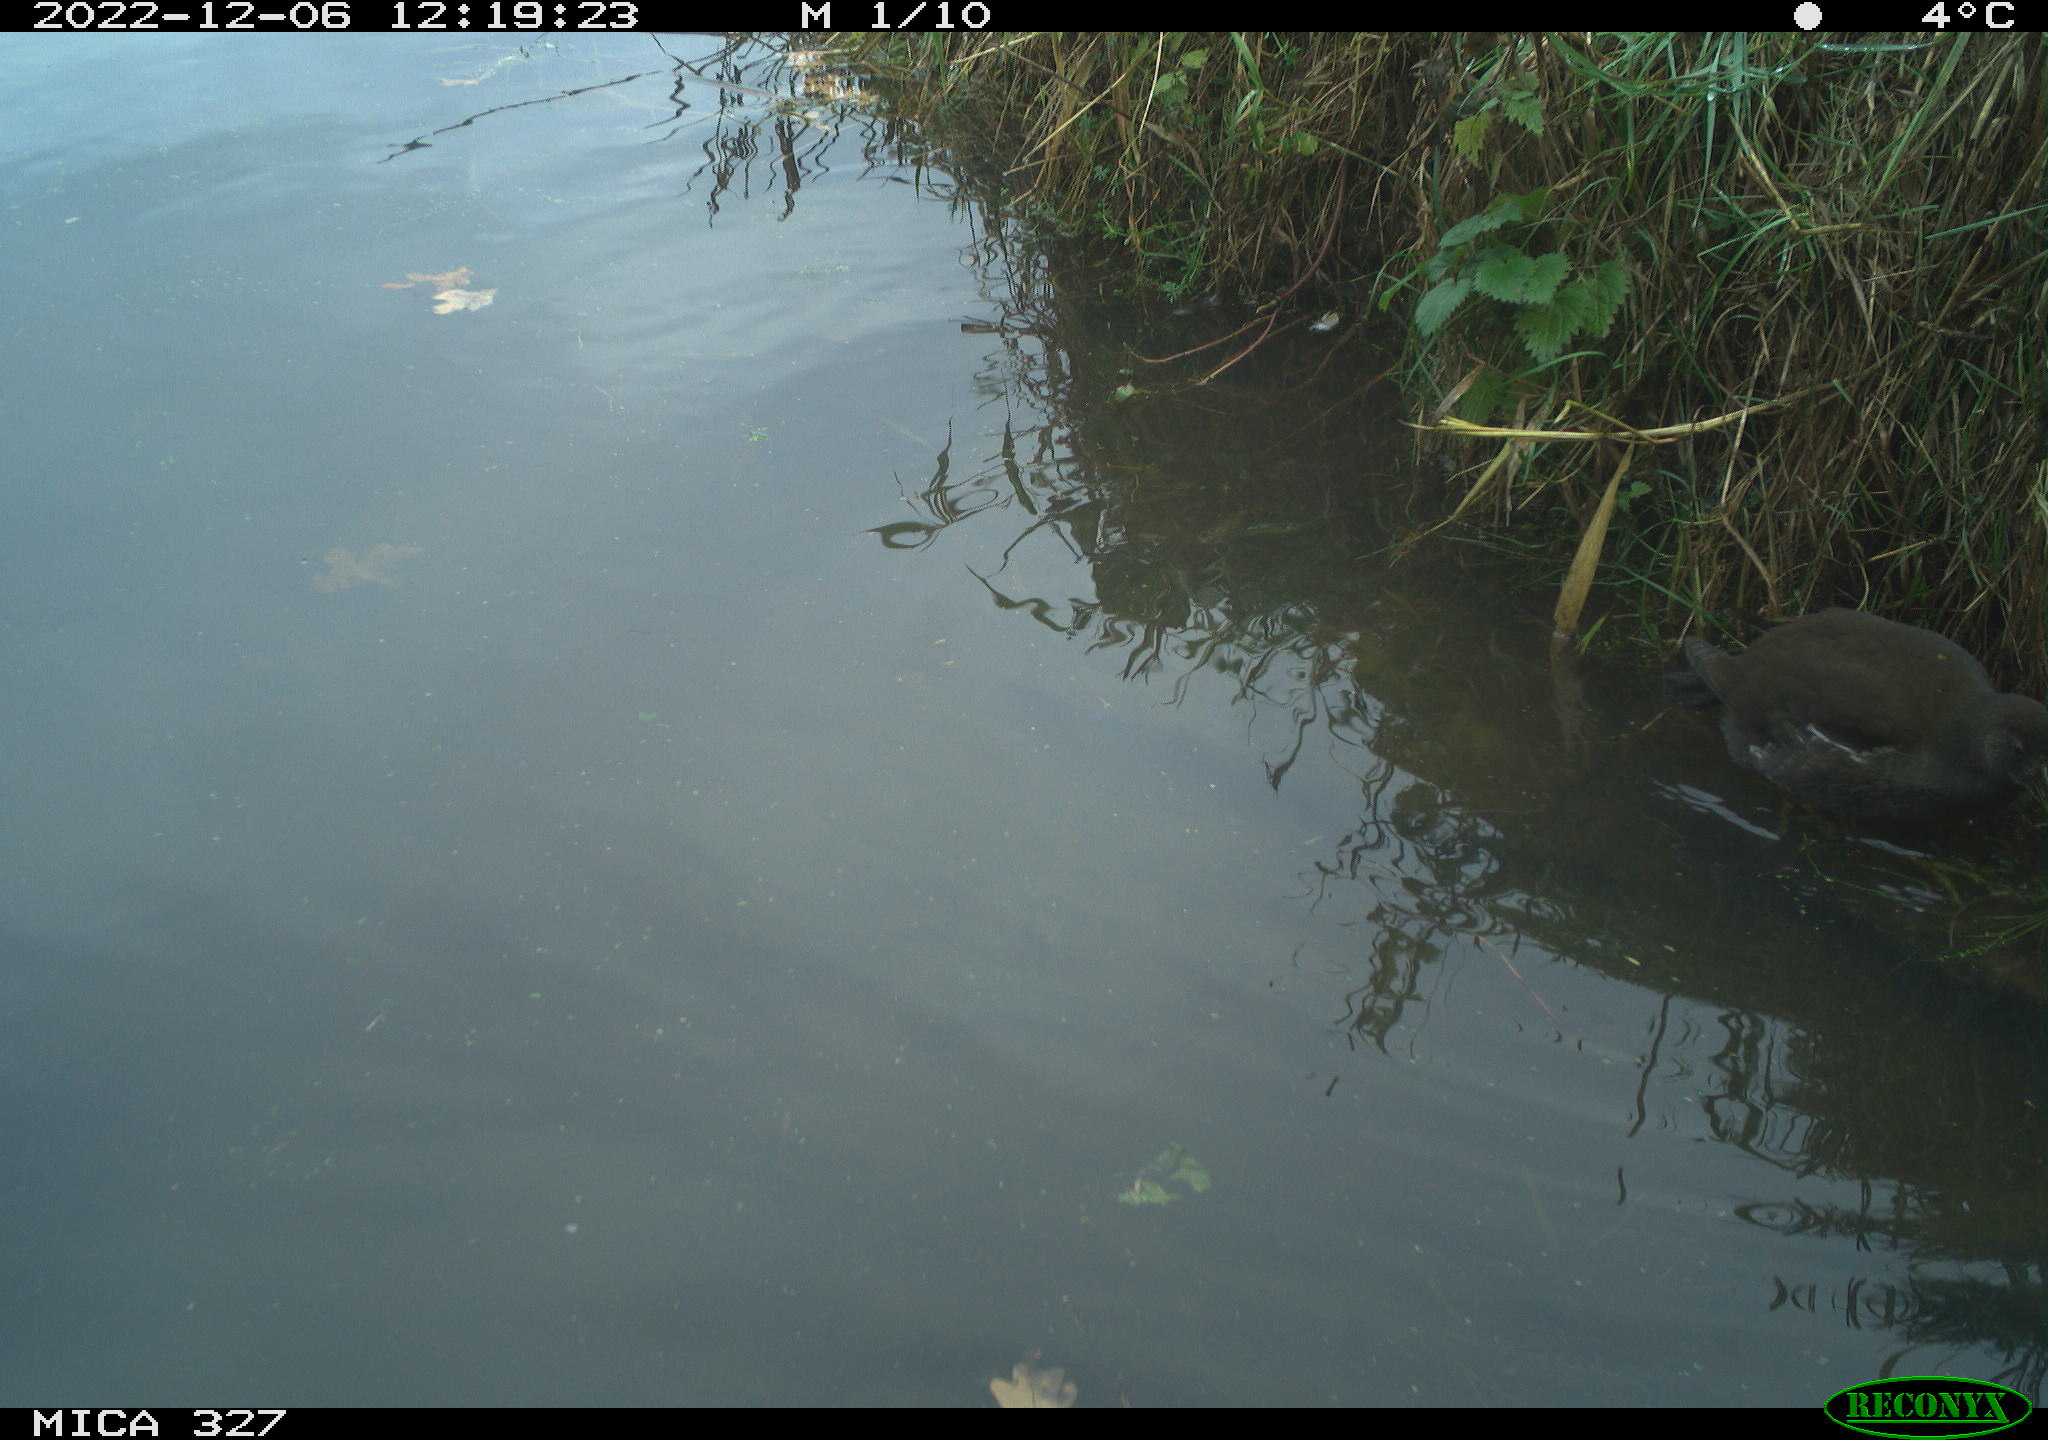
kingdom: Animalia
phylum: Chordata
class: Aves
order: Gruiformes
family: Rallidae
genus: Gallinula
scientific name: Gallinula chloropus
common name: Common moorhen
